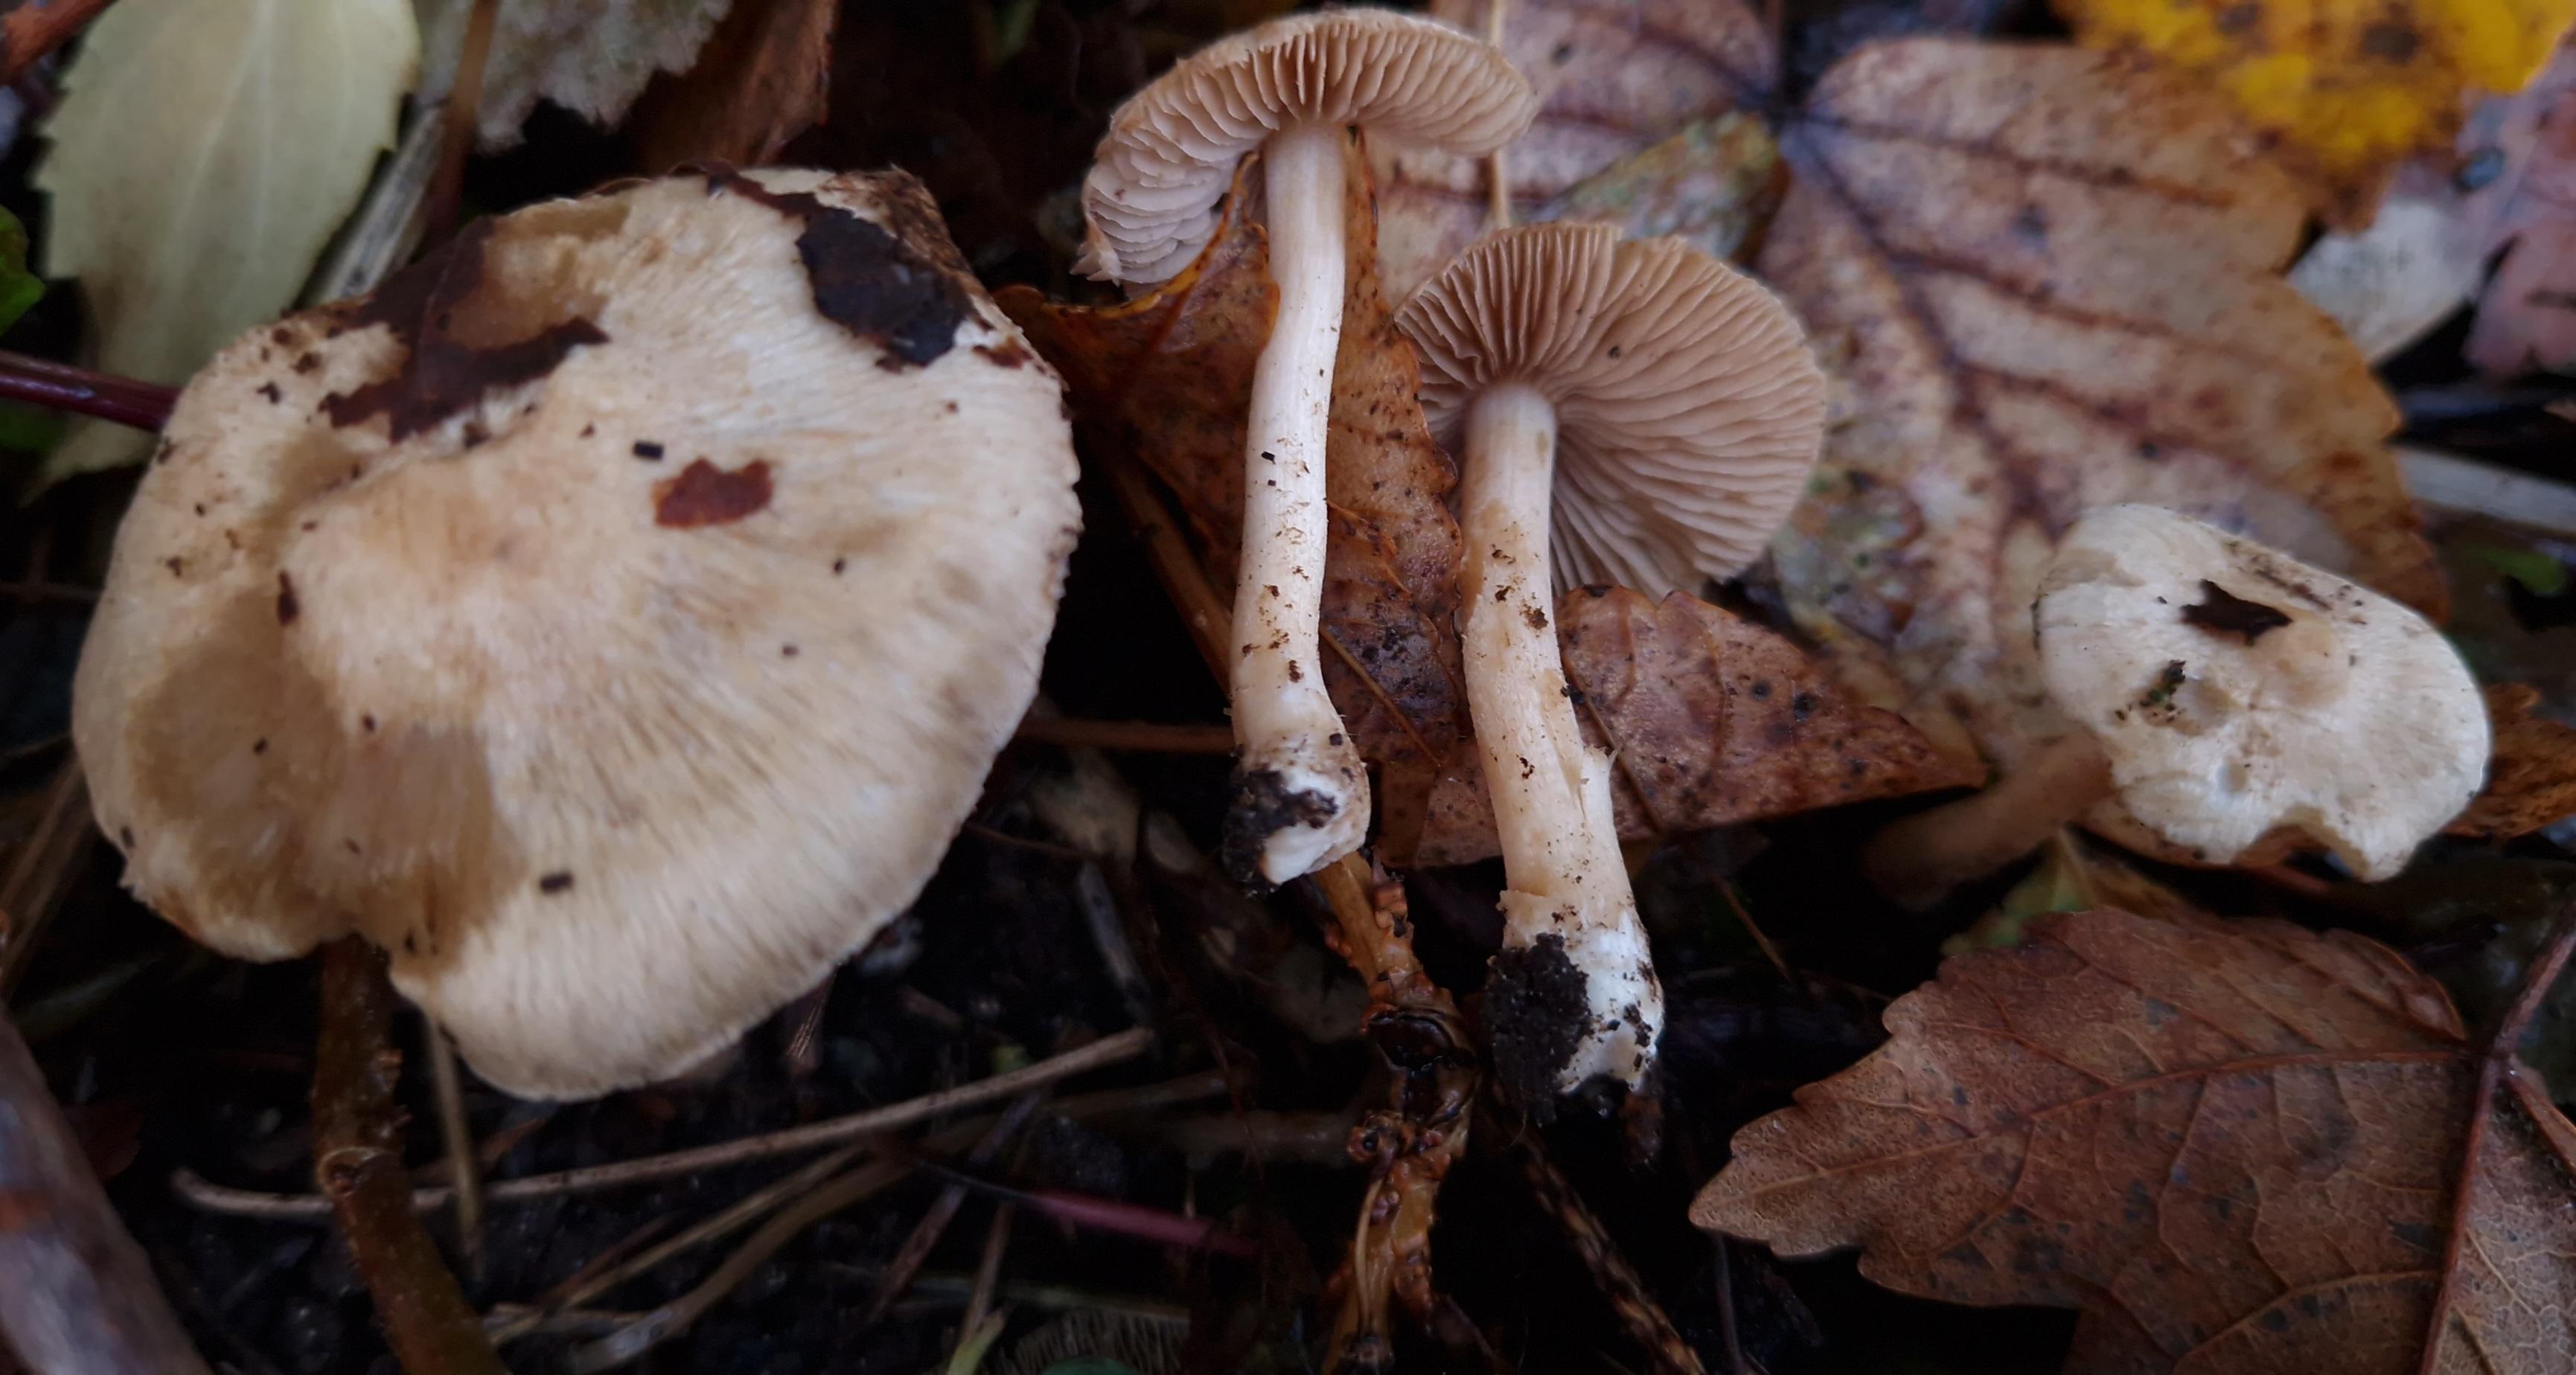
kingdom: Fungi
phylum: Basidiomycota
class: Agaricomycetes
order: Agaricales
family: Inocybaceae
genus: Inocybe
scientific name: Inocybe sindonia
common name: bleg trævlhat
